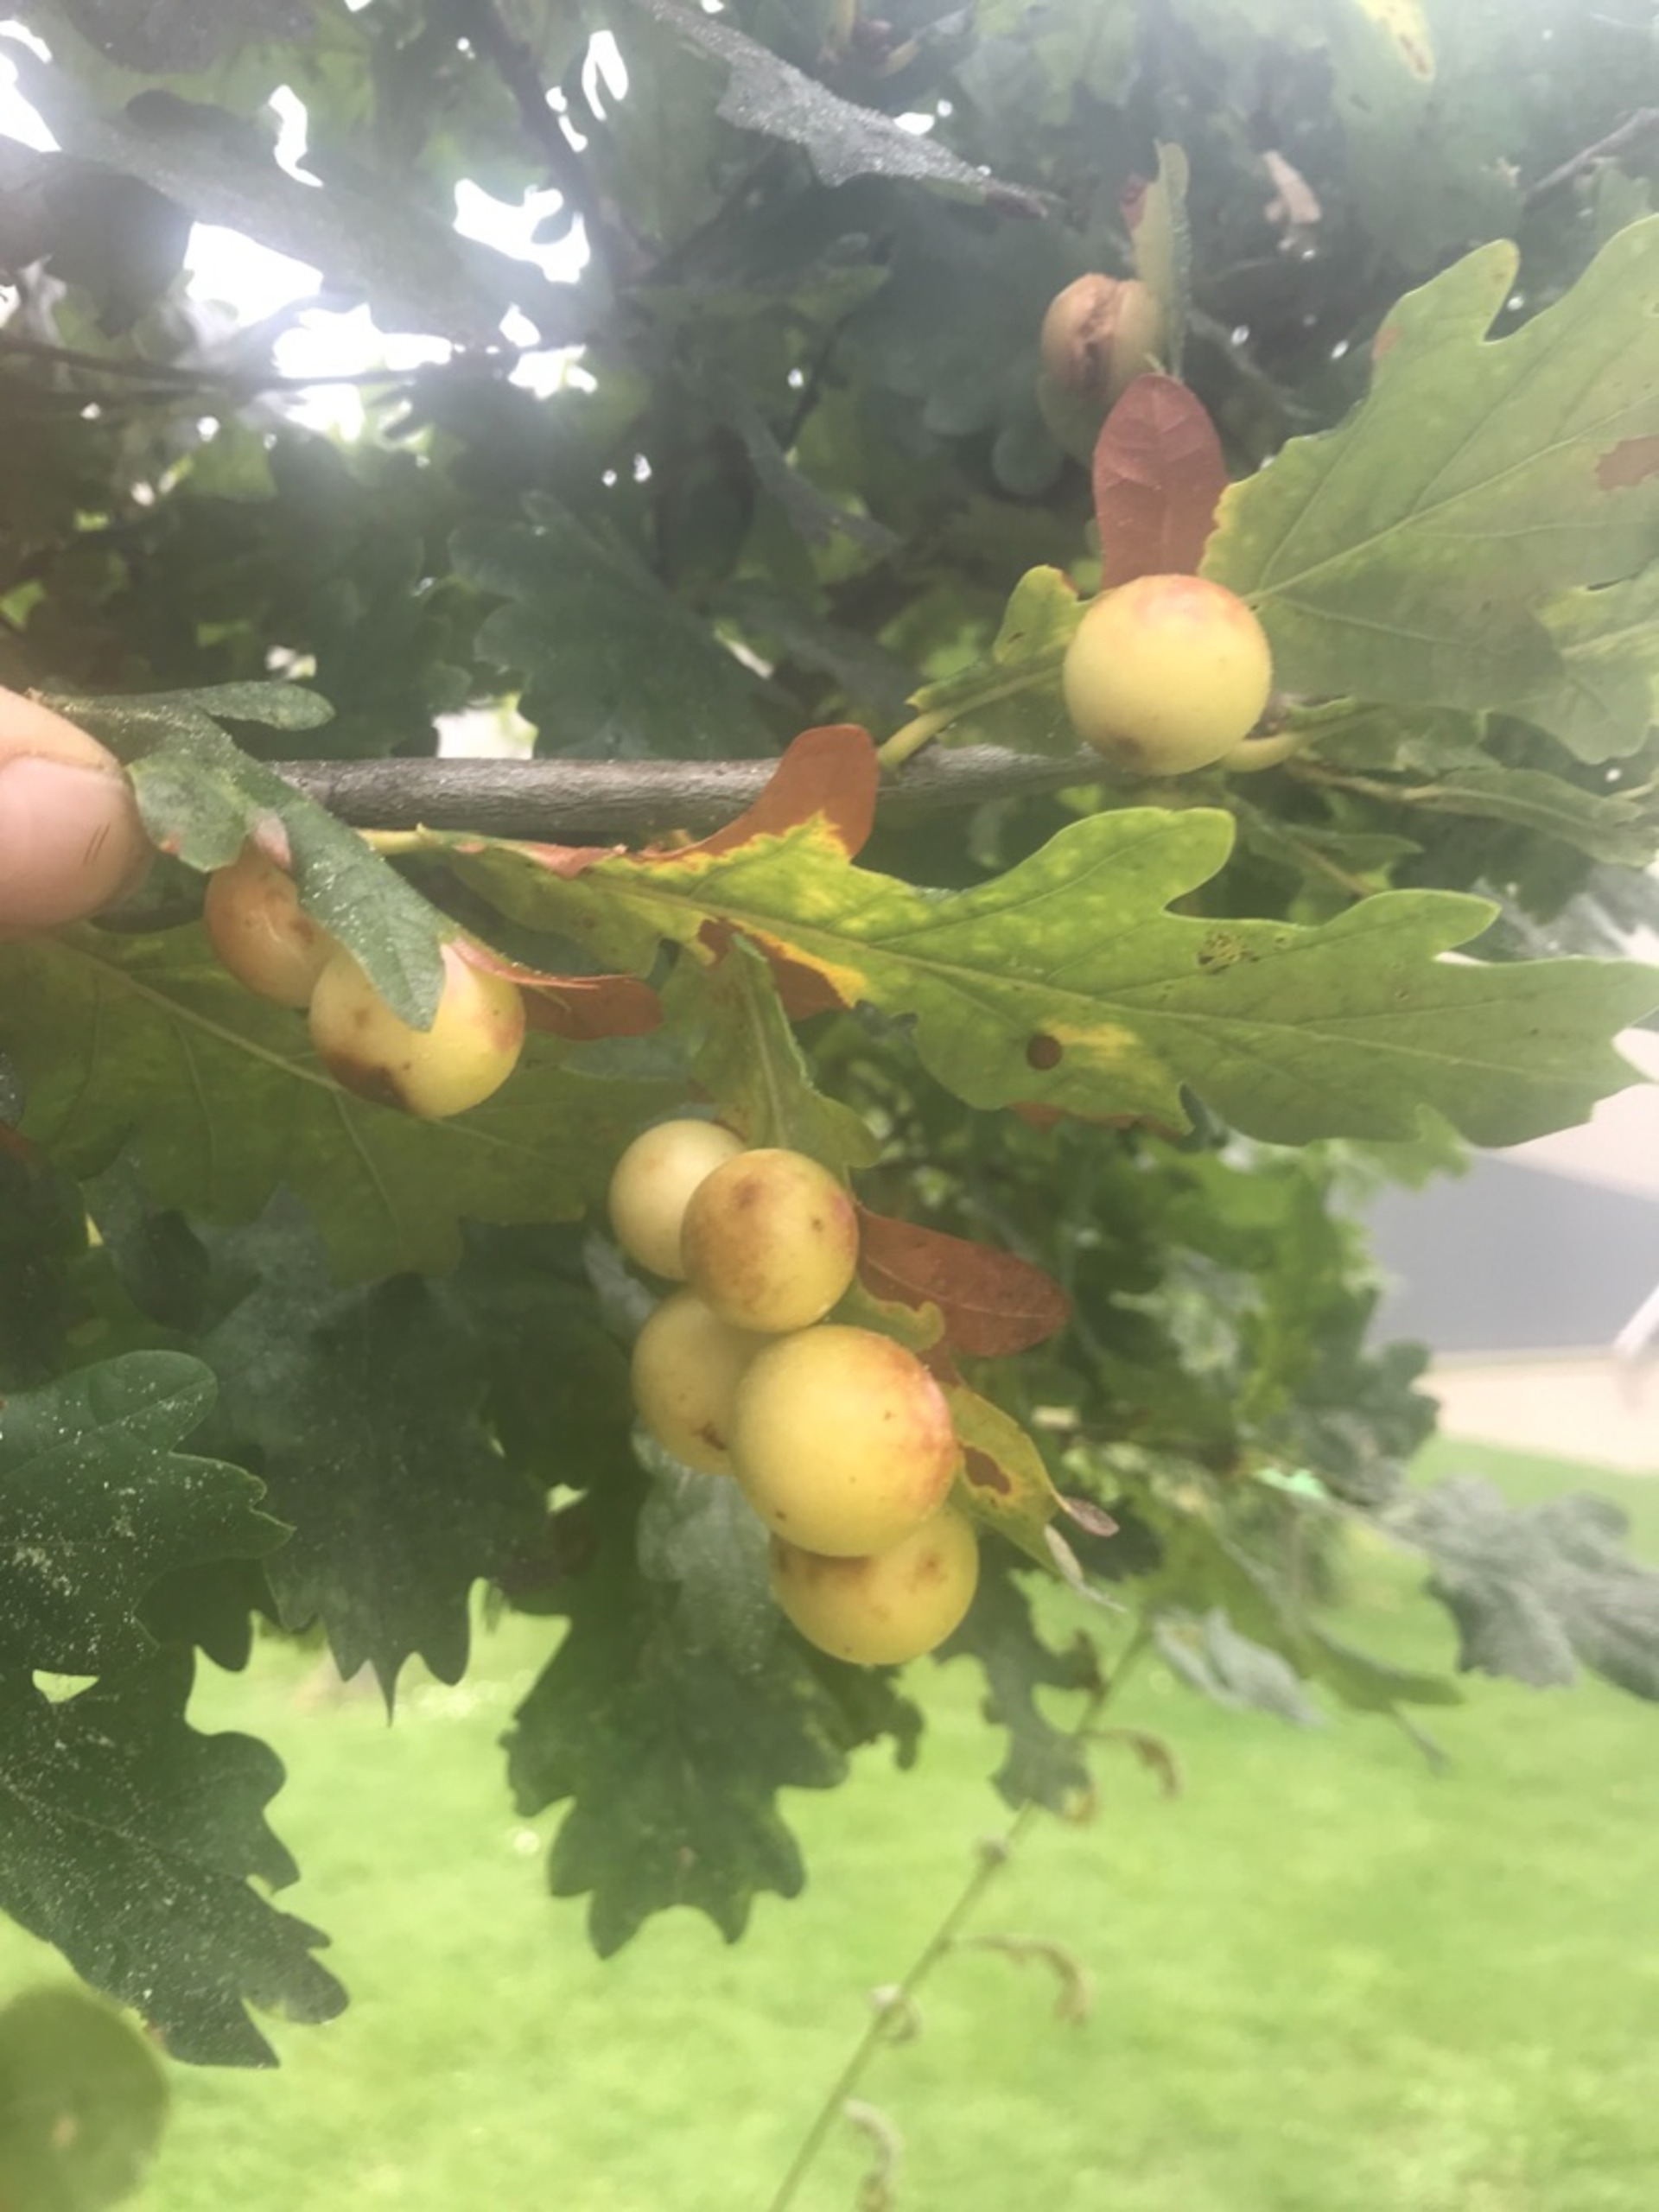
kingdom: Animalia
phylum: Arthropoda
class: Insecta
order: Hymenoptera
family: Cynipidae
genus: Cynips
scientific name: Cynips quercusfolii
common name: Stor galæblehveps
